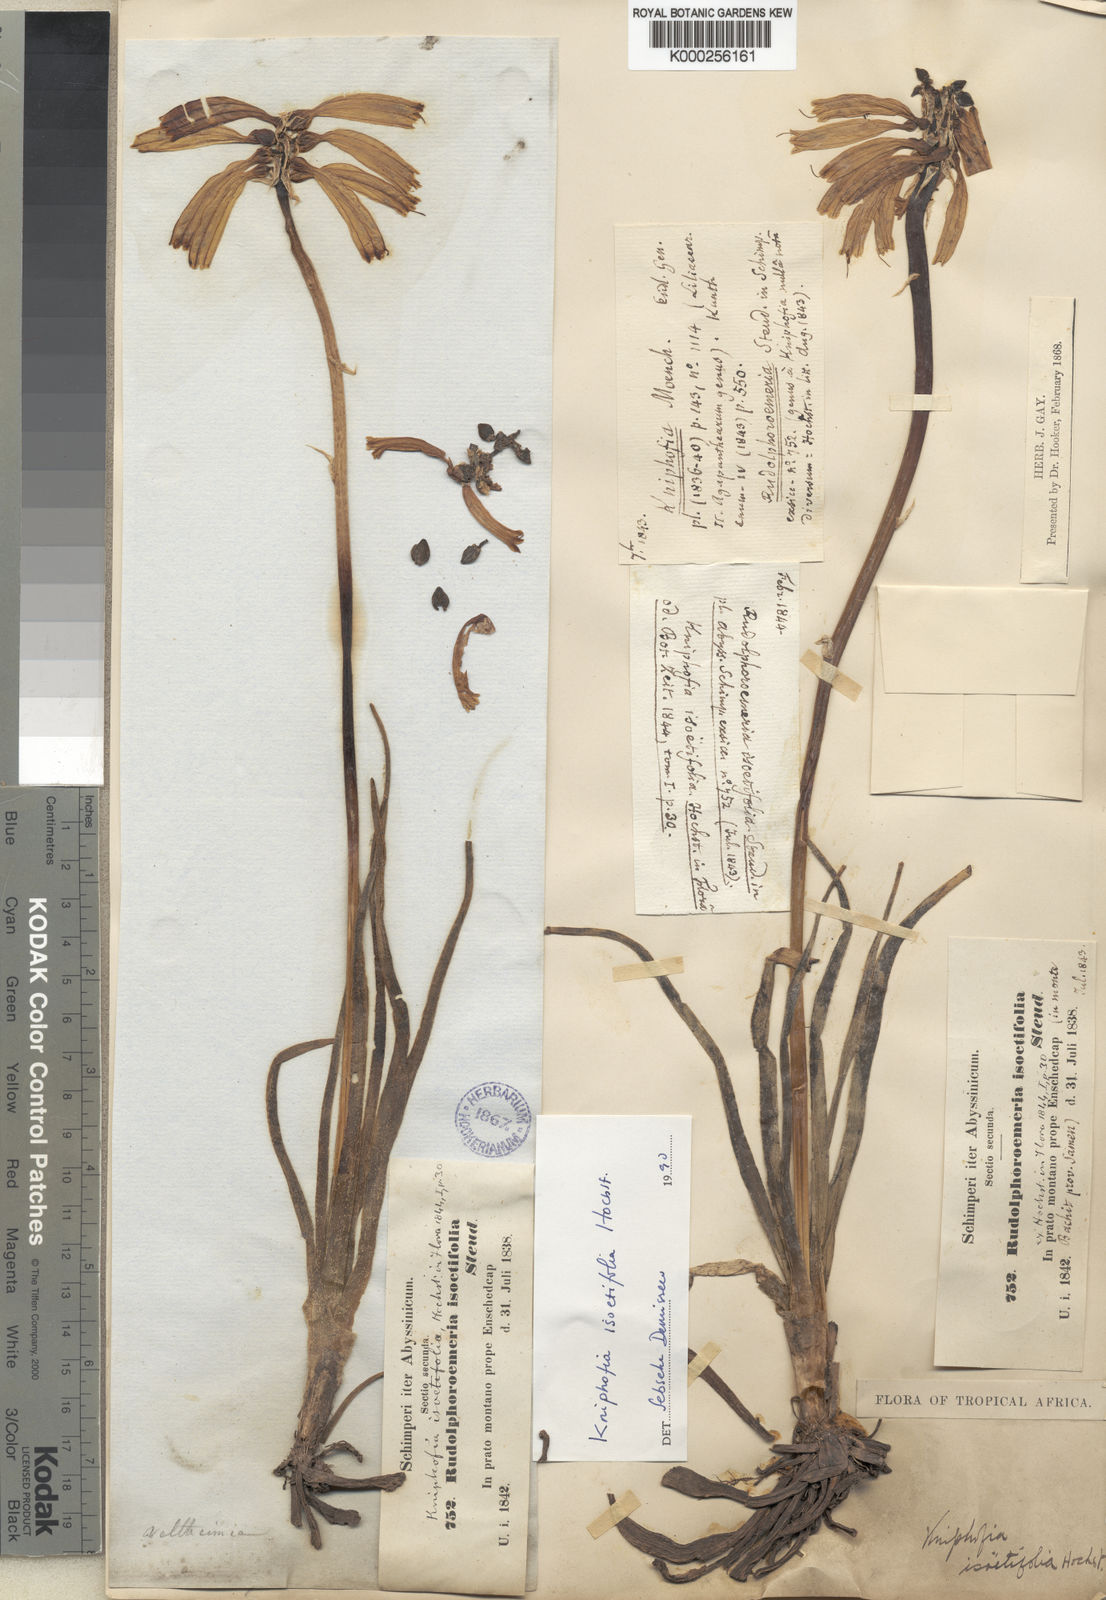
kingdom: Plantae
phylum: Tracheophyta
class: Liliopsida
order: Asparagales
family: Asphodelaceae
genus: Kniphofia
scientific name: Kniphofia isoetifolia
